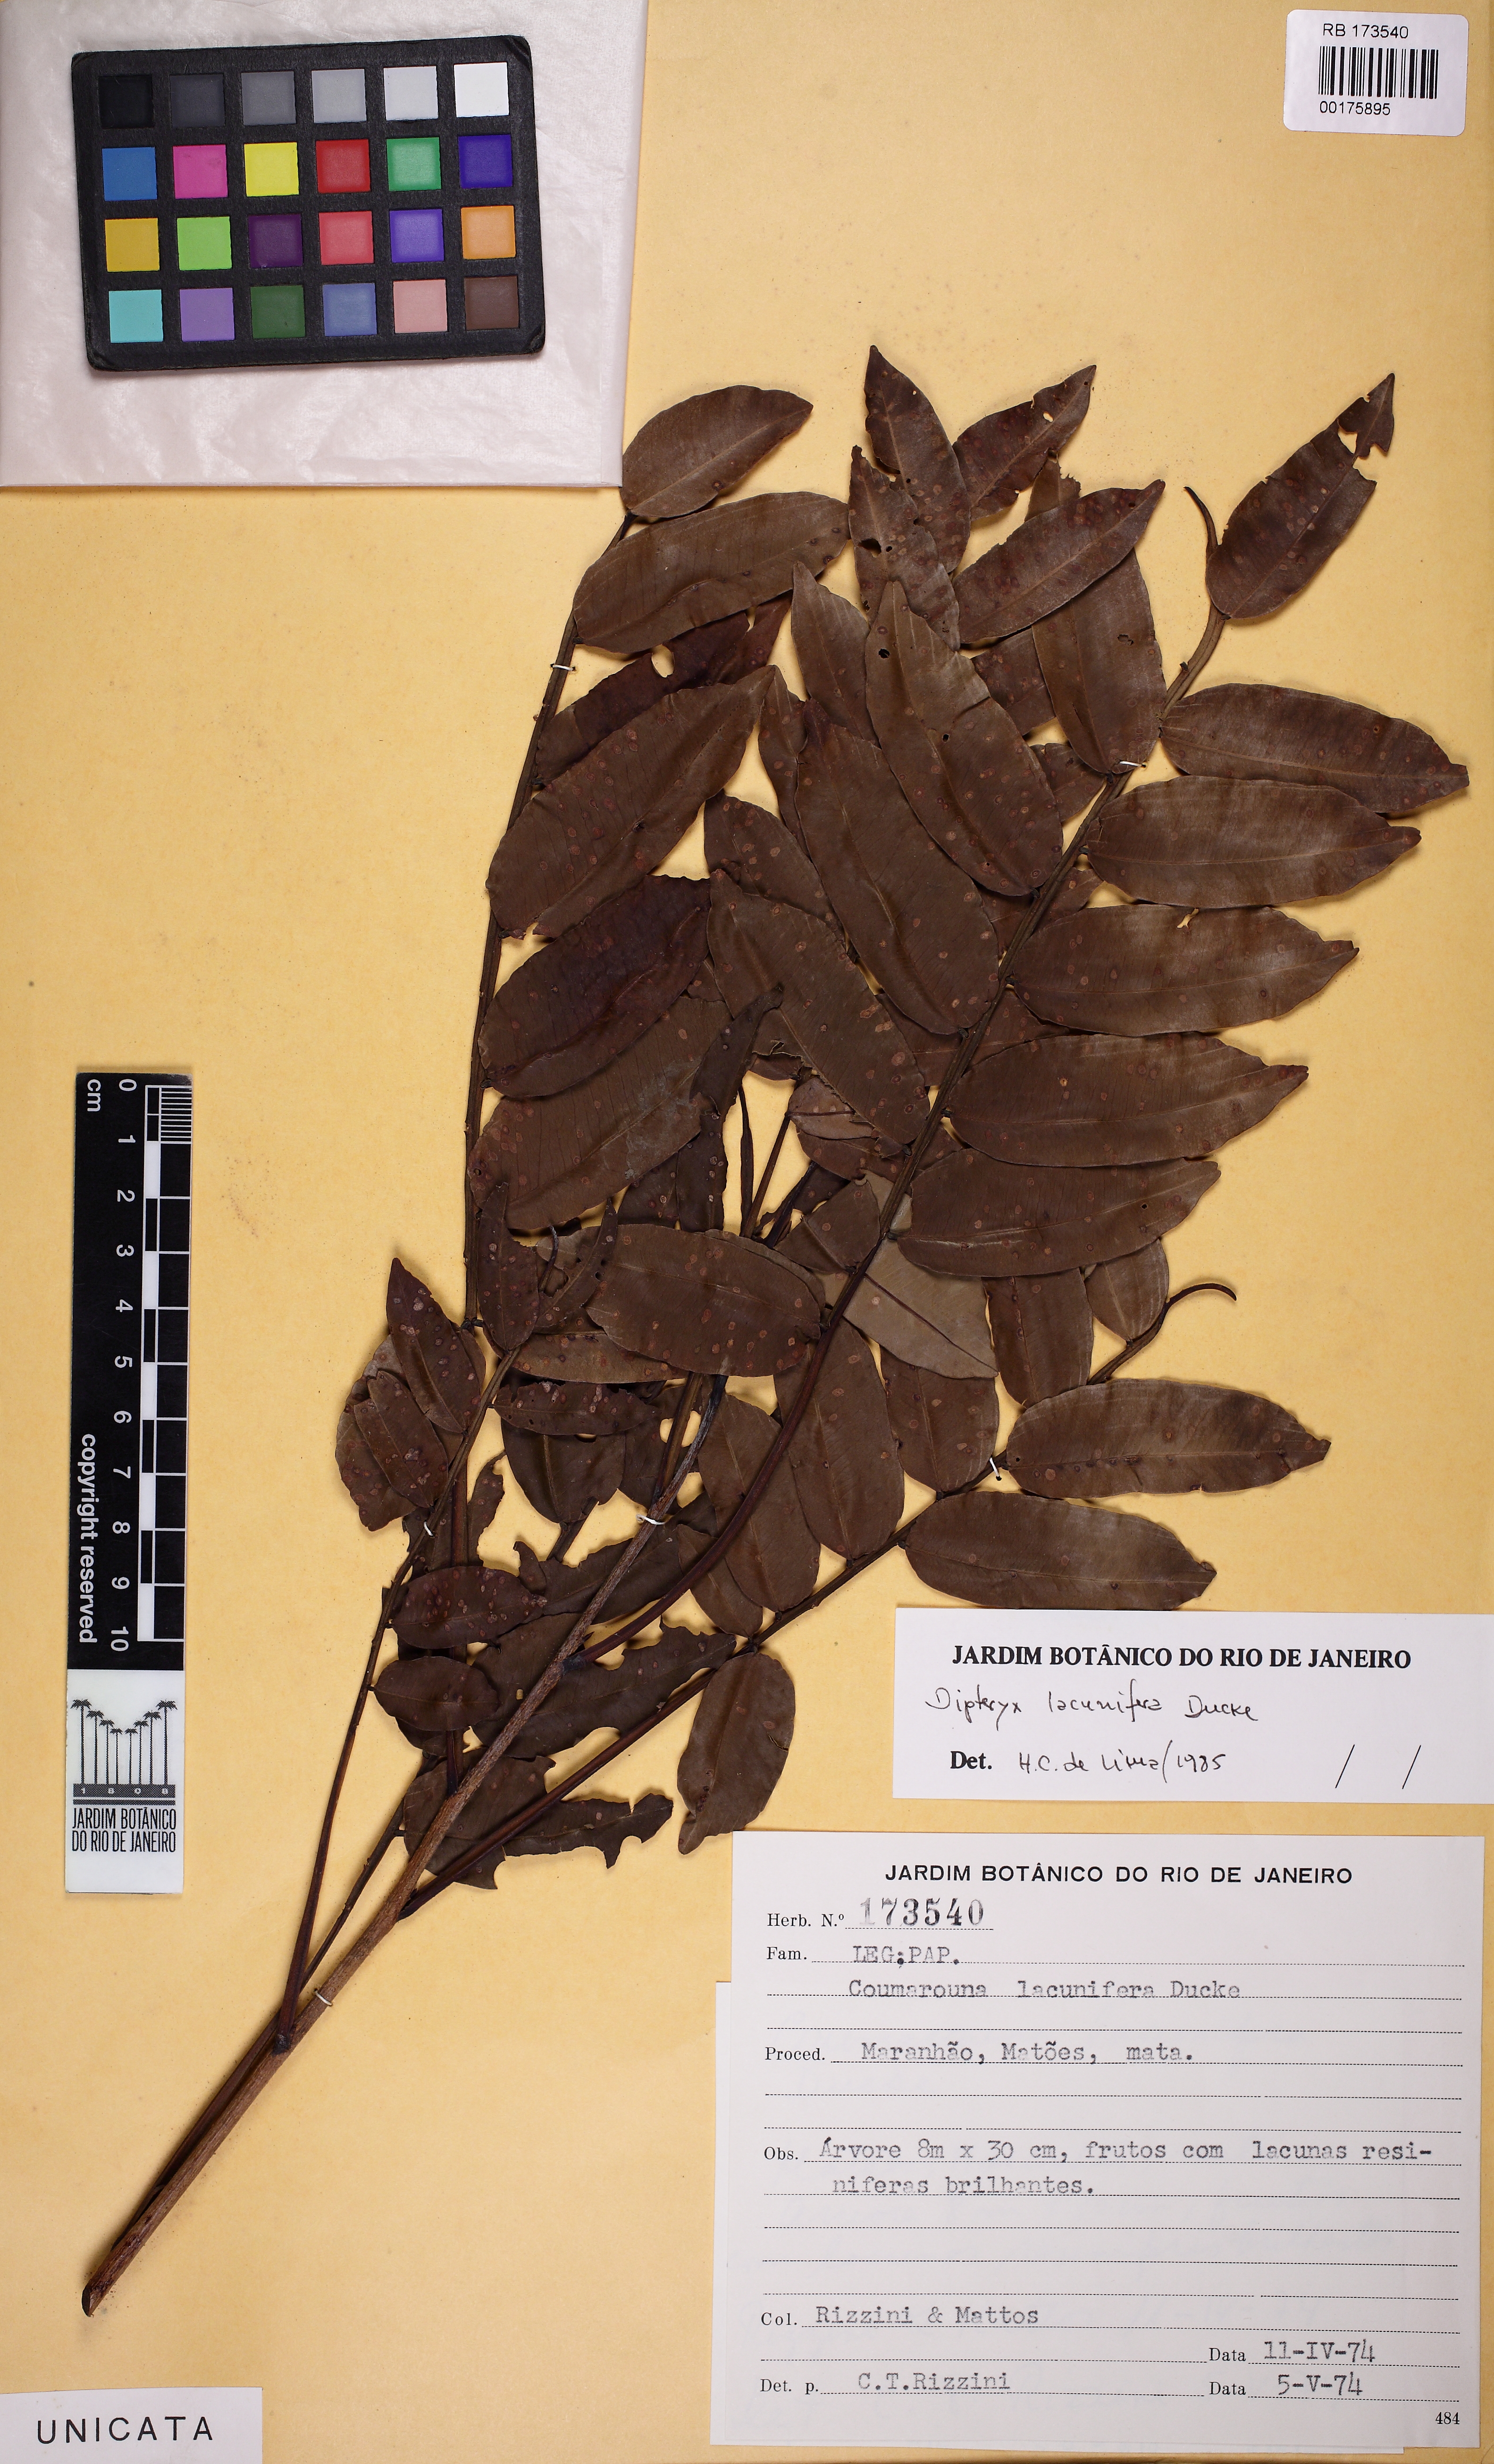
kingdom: Plantae
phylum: Tracheophyta
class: Magnoliopsida
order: Fabales
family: Fabaceae
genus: Dipteryx
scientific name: Dipteryx lacunifera
